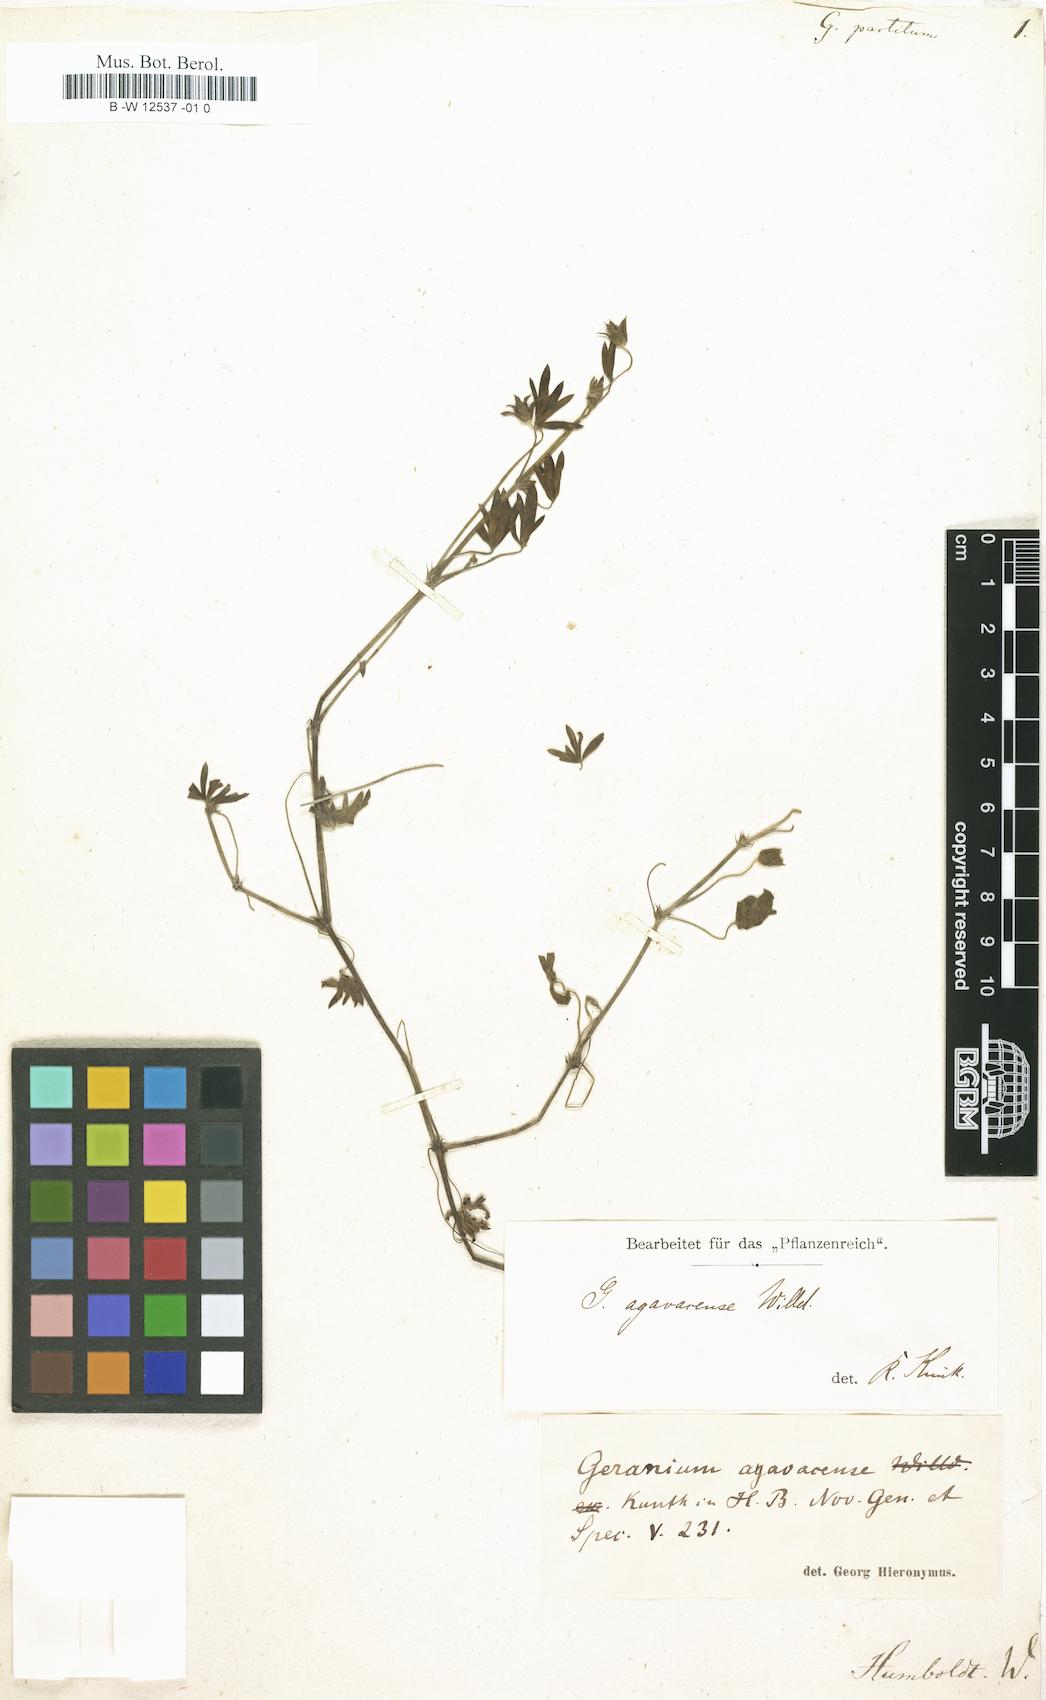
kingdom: Plantae
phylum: Tracheophyta
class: Magnoliopsida
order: Geraniales
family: Geraniaceae
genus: Geranium
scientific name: Geranium ayavacense
